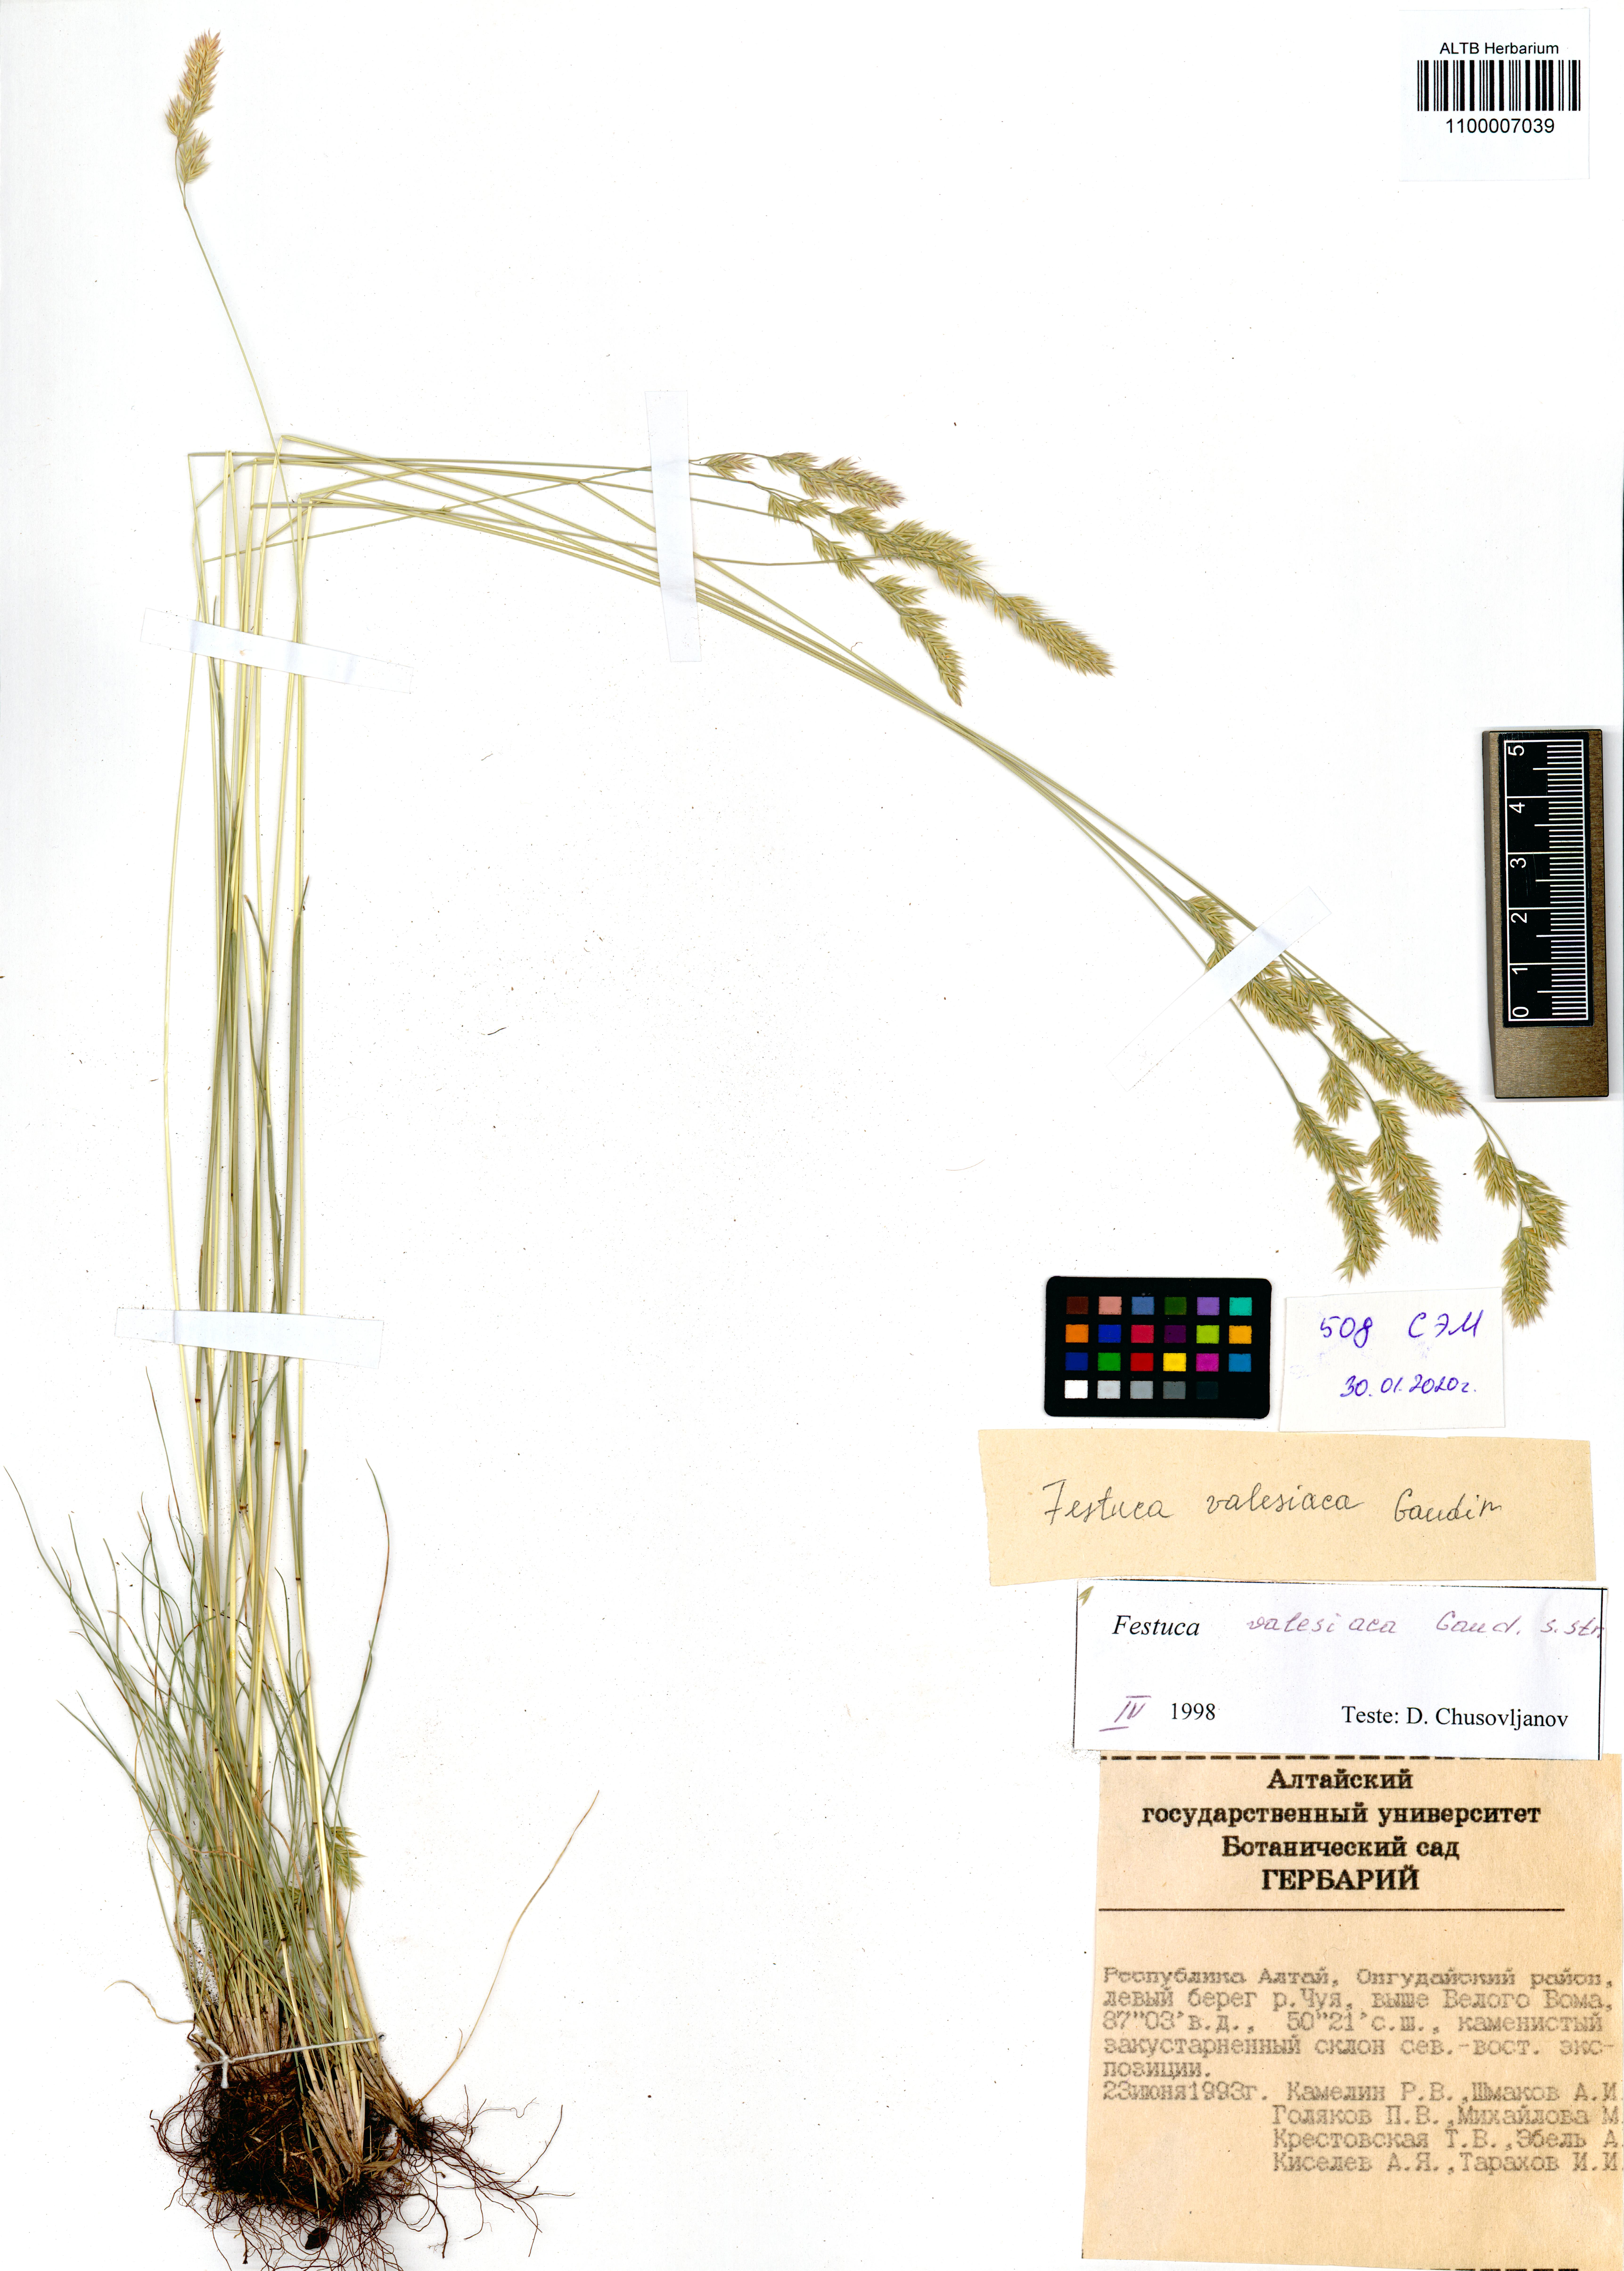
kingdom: Plantae
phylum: Tracheophyta
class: Liliopsida
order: Poales
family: Poaceae
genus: Festuca
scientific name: Festuca valesiaca
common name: Volga fescue
